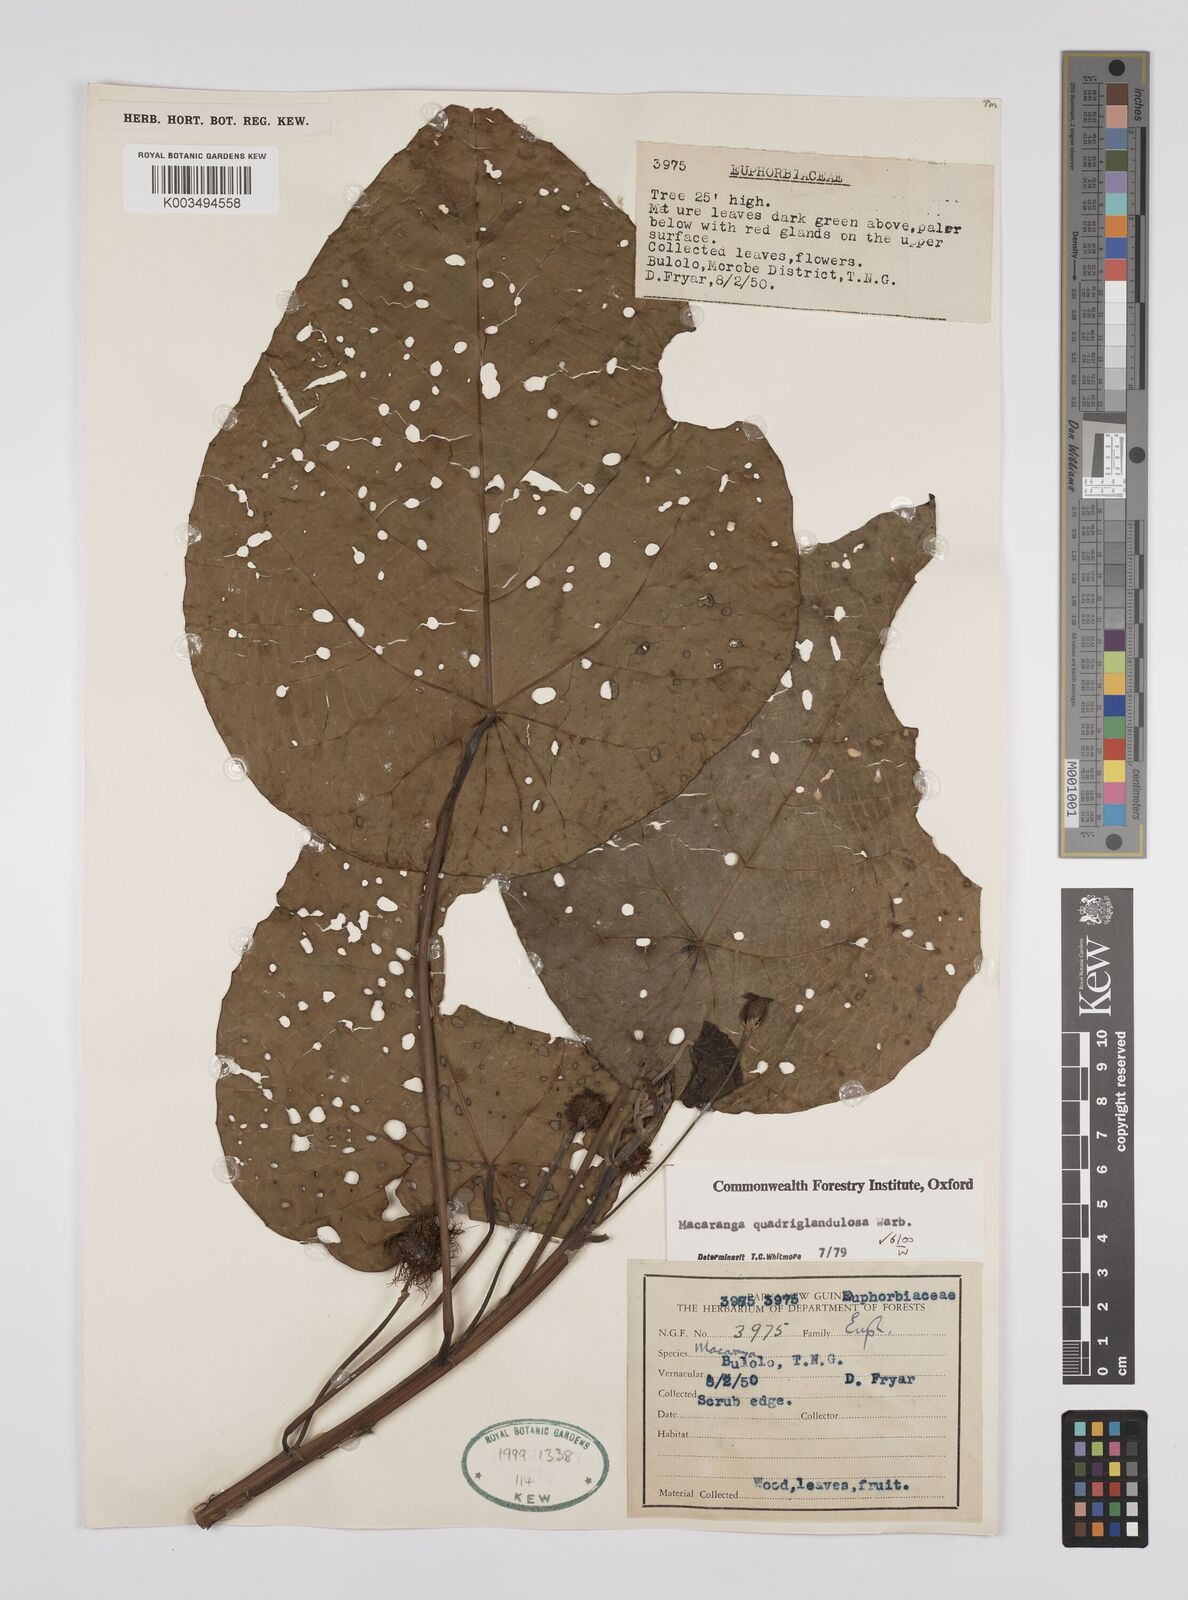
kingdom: Plantae
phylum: Tracheophyta
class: Magnoliopsida
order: Malpighiales
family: Euphorbiaceae
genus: Macaranga
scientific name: Macaranga quadriglandulosa
